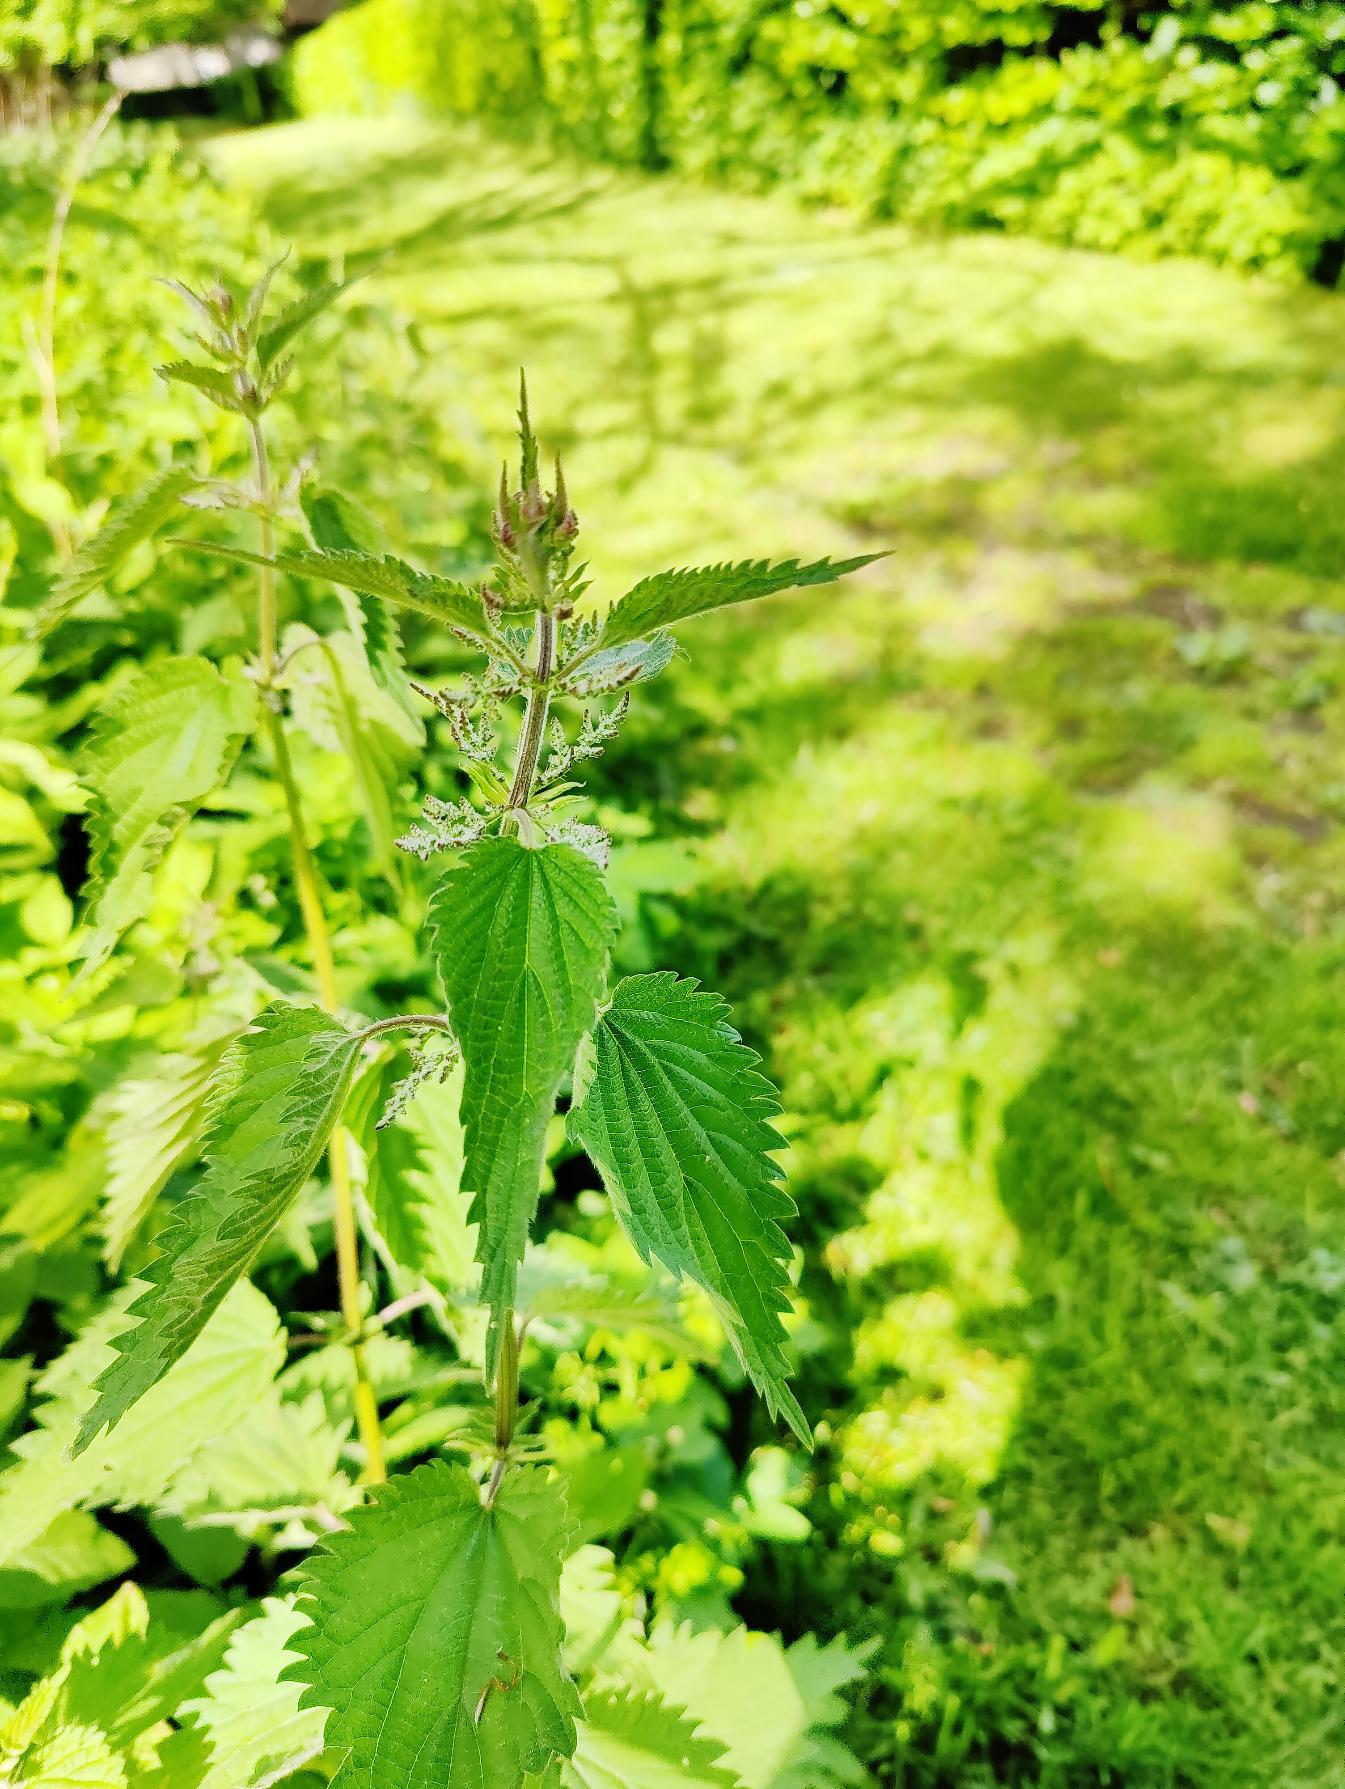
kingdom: Plantae
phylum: Tracheophyta
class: Magnoliopsida
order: Rosales
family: Urticaceae
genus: Urtica
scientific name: Urtica dioica
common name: Stor nælde
